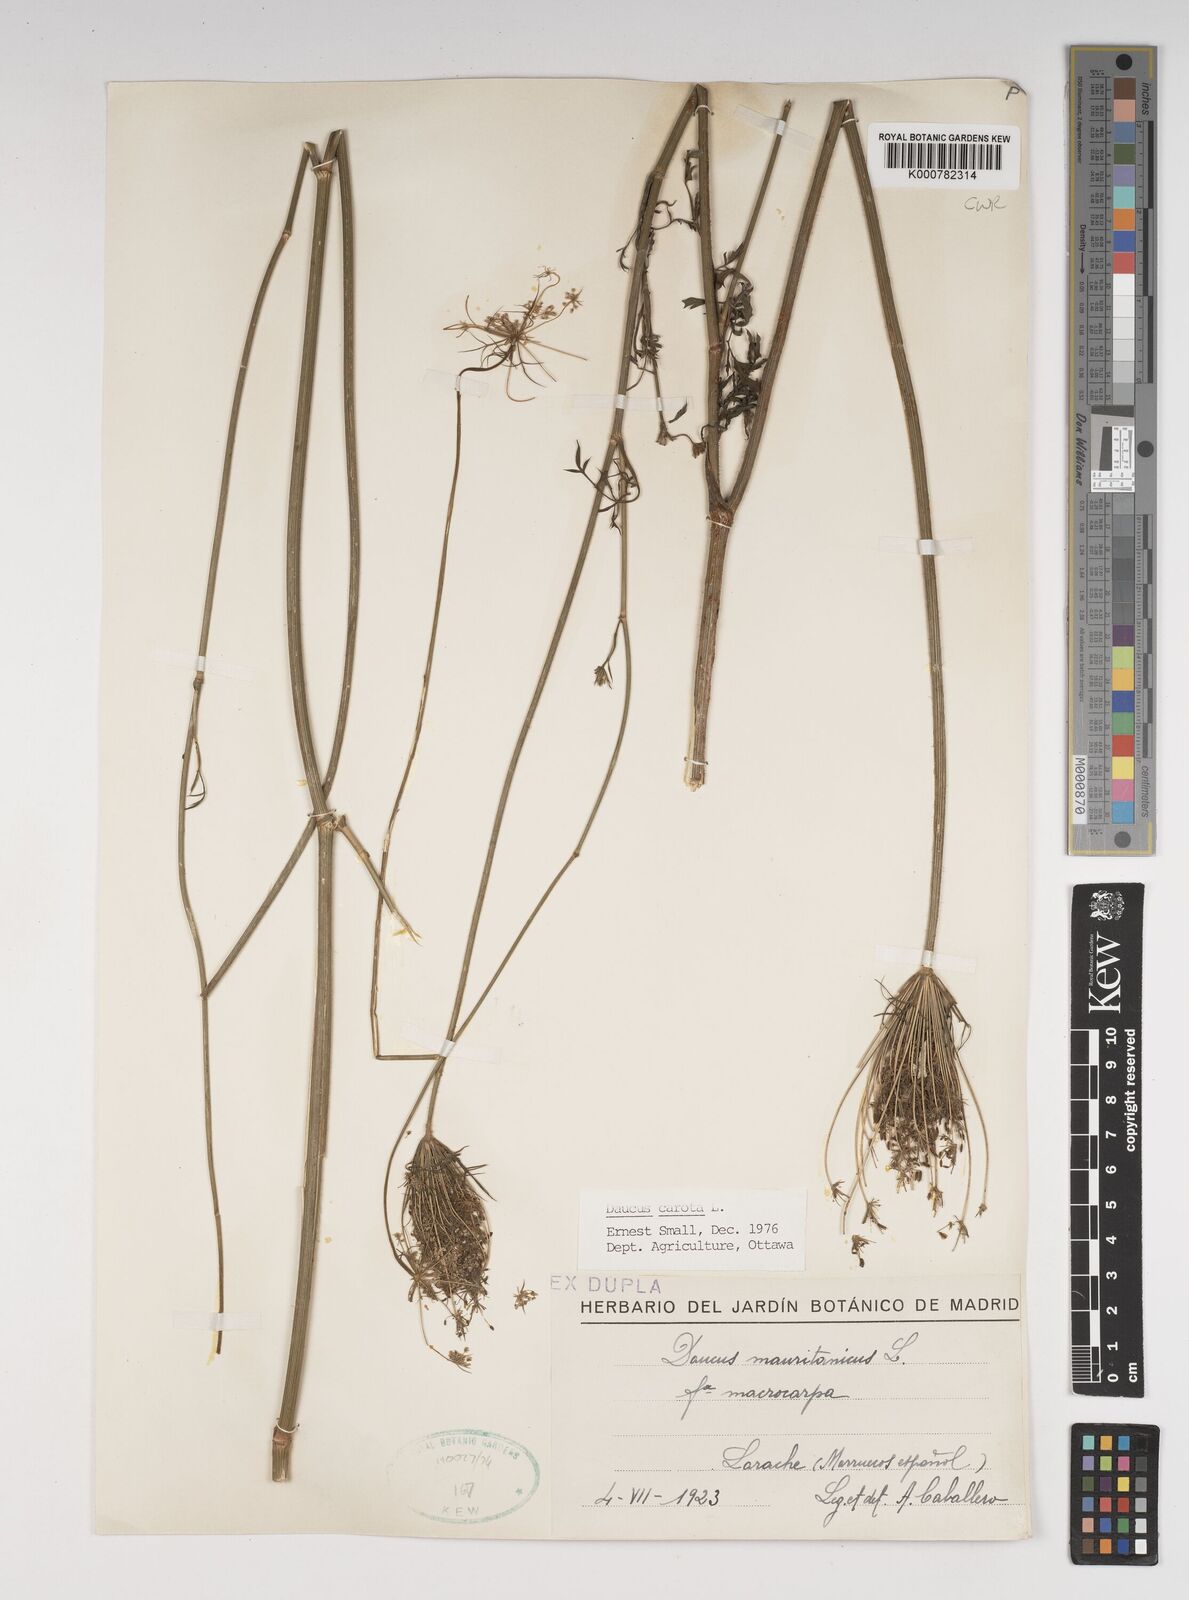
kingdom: Plantae
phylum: Tracheophyta
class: Magnoliopsida
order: Apiales
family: Apiaceae
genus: Daucus
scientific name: Daucus carota
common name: Wild carrot
